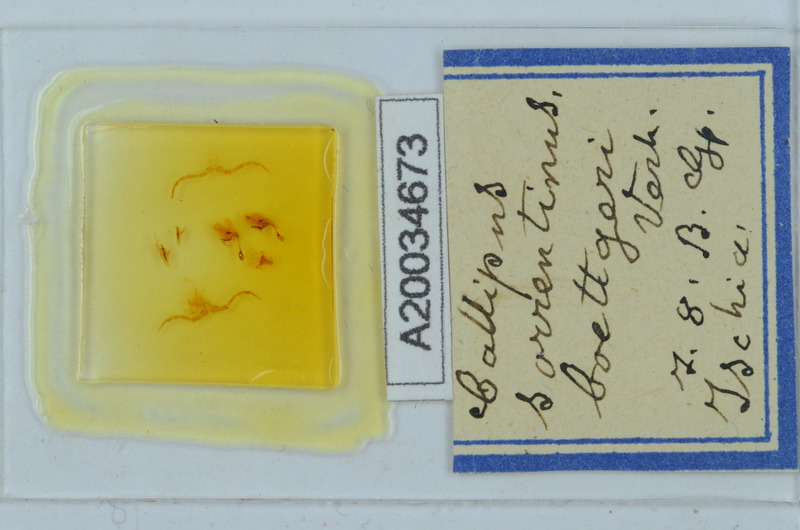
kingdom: Animalia
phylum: Arthropoda
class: Diplopoda
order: Callipodida
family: Callipodidae
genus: Callipus
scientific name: Callipus foetidissimus
